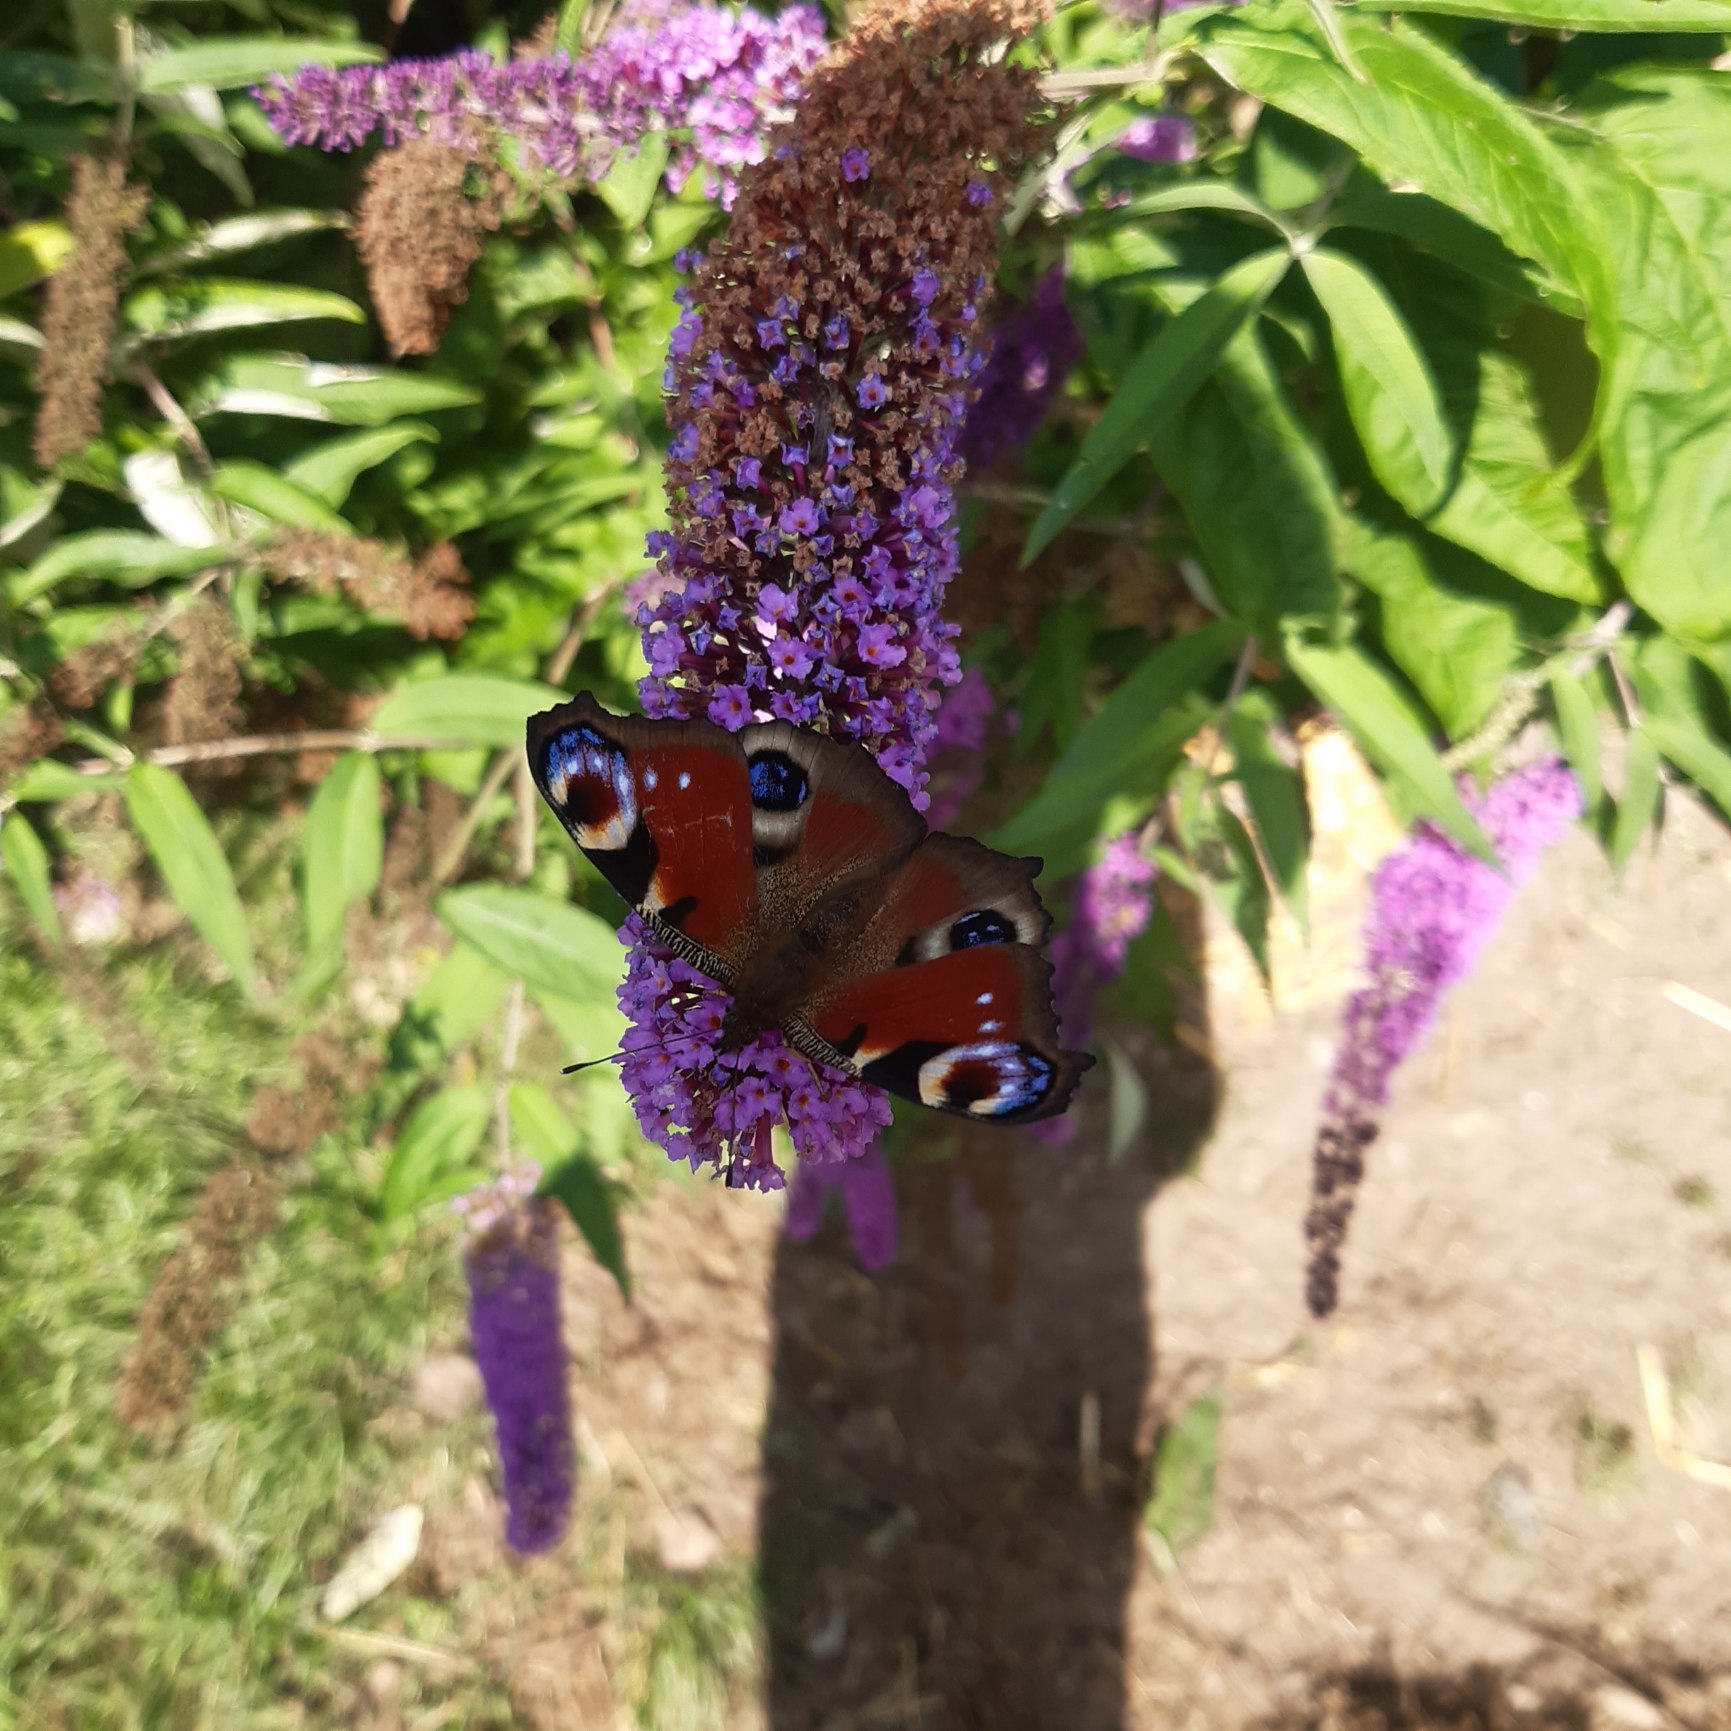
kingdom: Animalia
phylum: Arthropoda
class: Insecta
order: Lepidoptera
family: Nymphalidae
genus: Aglais
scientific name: Aglais io
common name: Dagpåfugleøje
